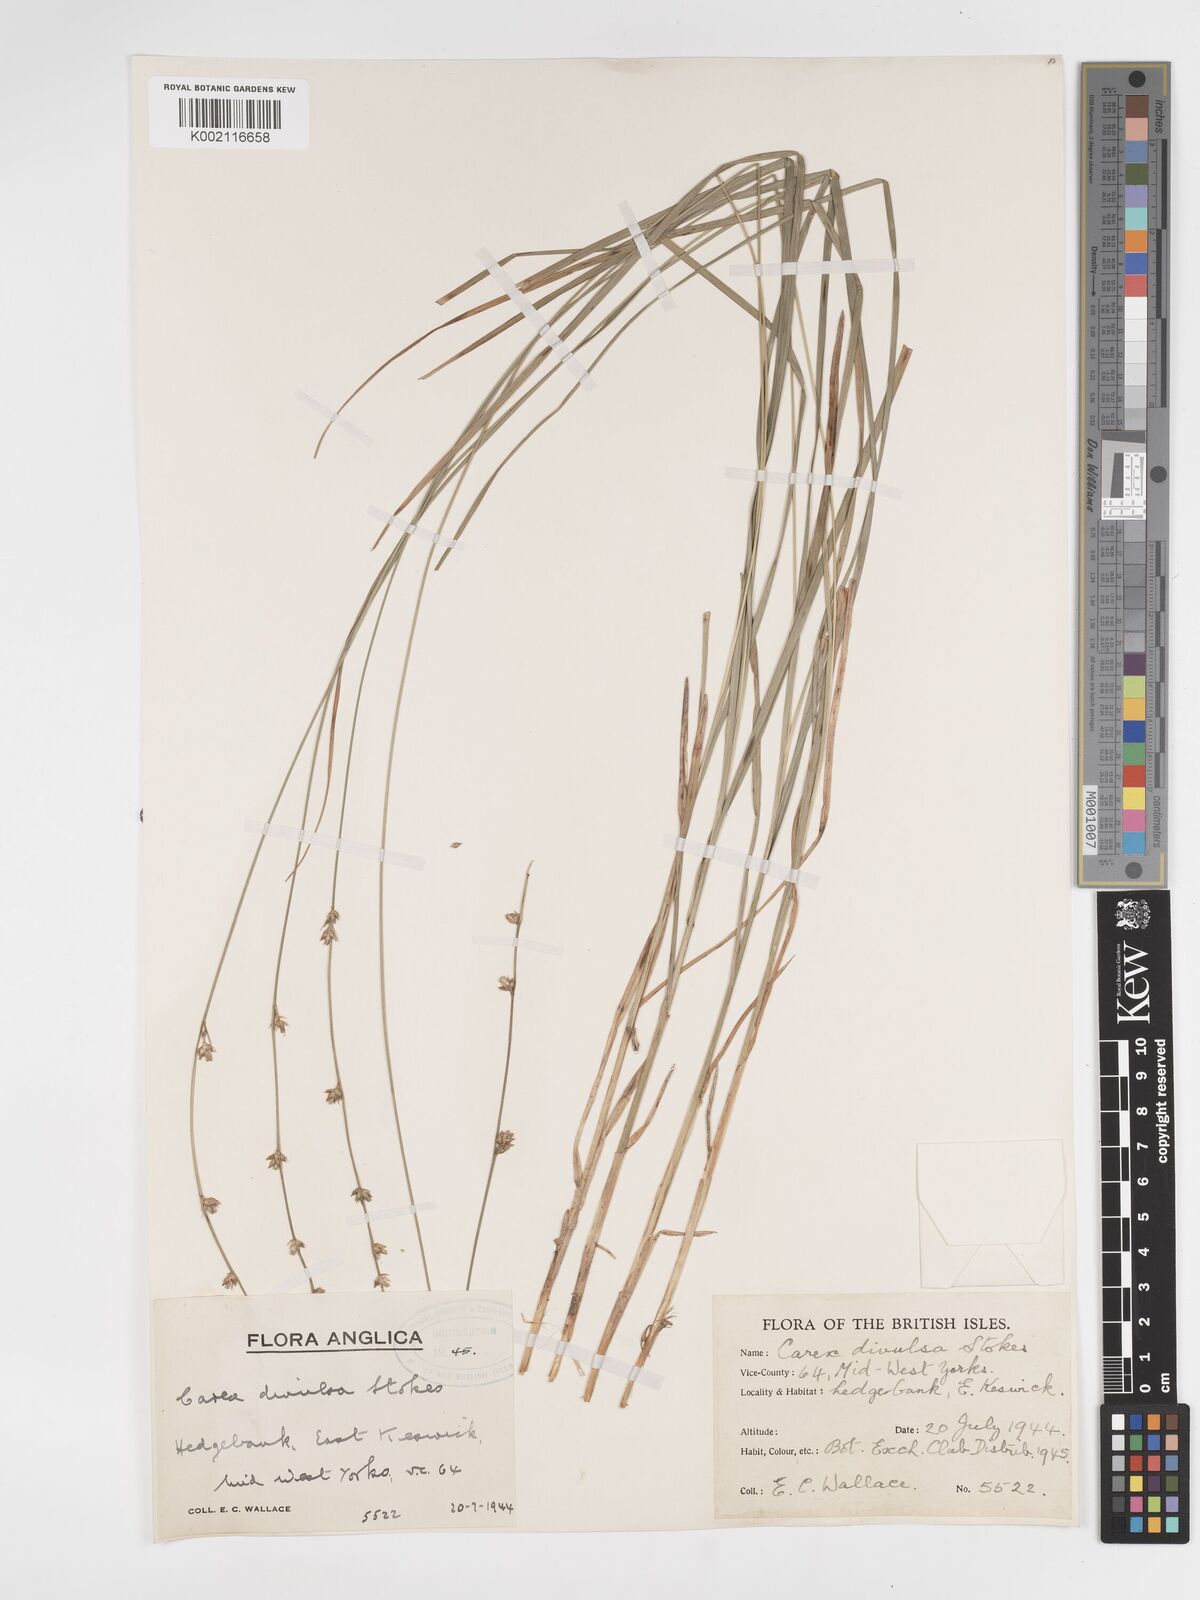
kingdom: Plantae
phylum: Tracheophyta
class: Liliopsida
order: Poales
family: Cyperaceae
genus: Carex
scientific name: Carex divulsa
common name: Grassland sedge
